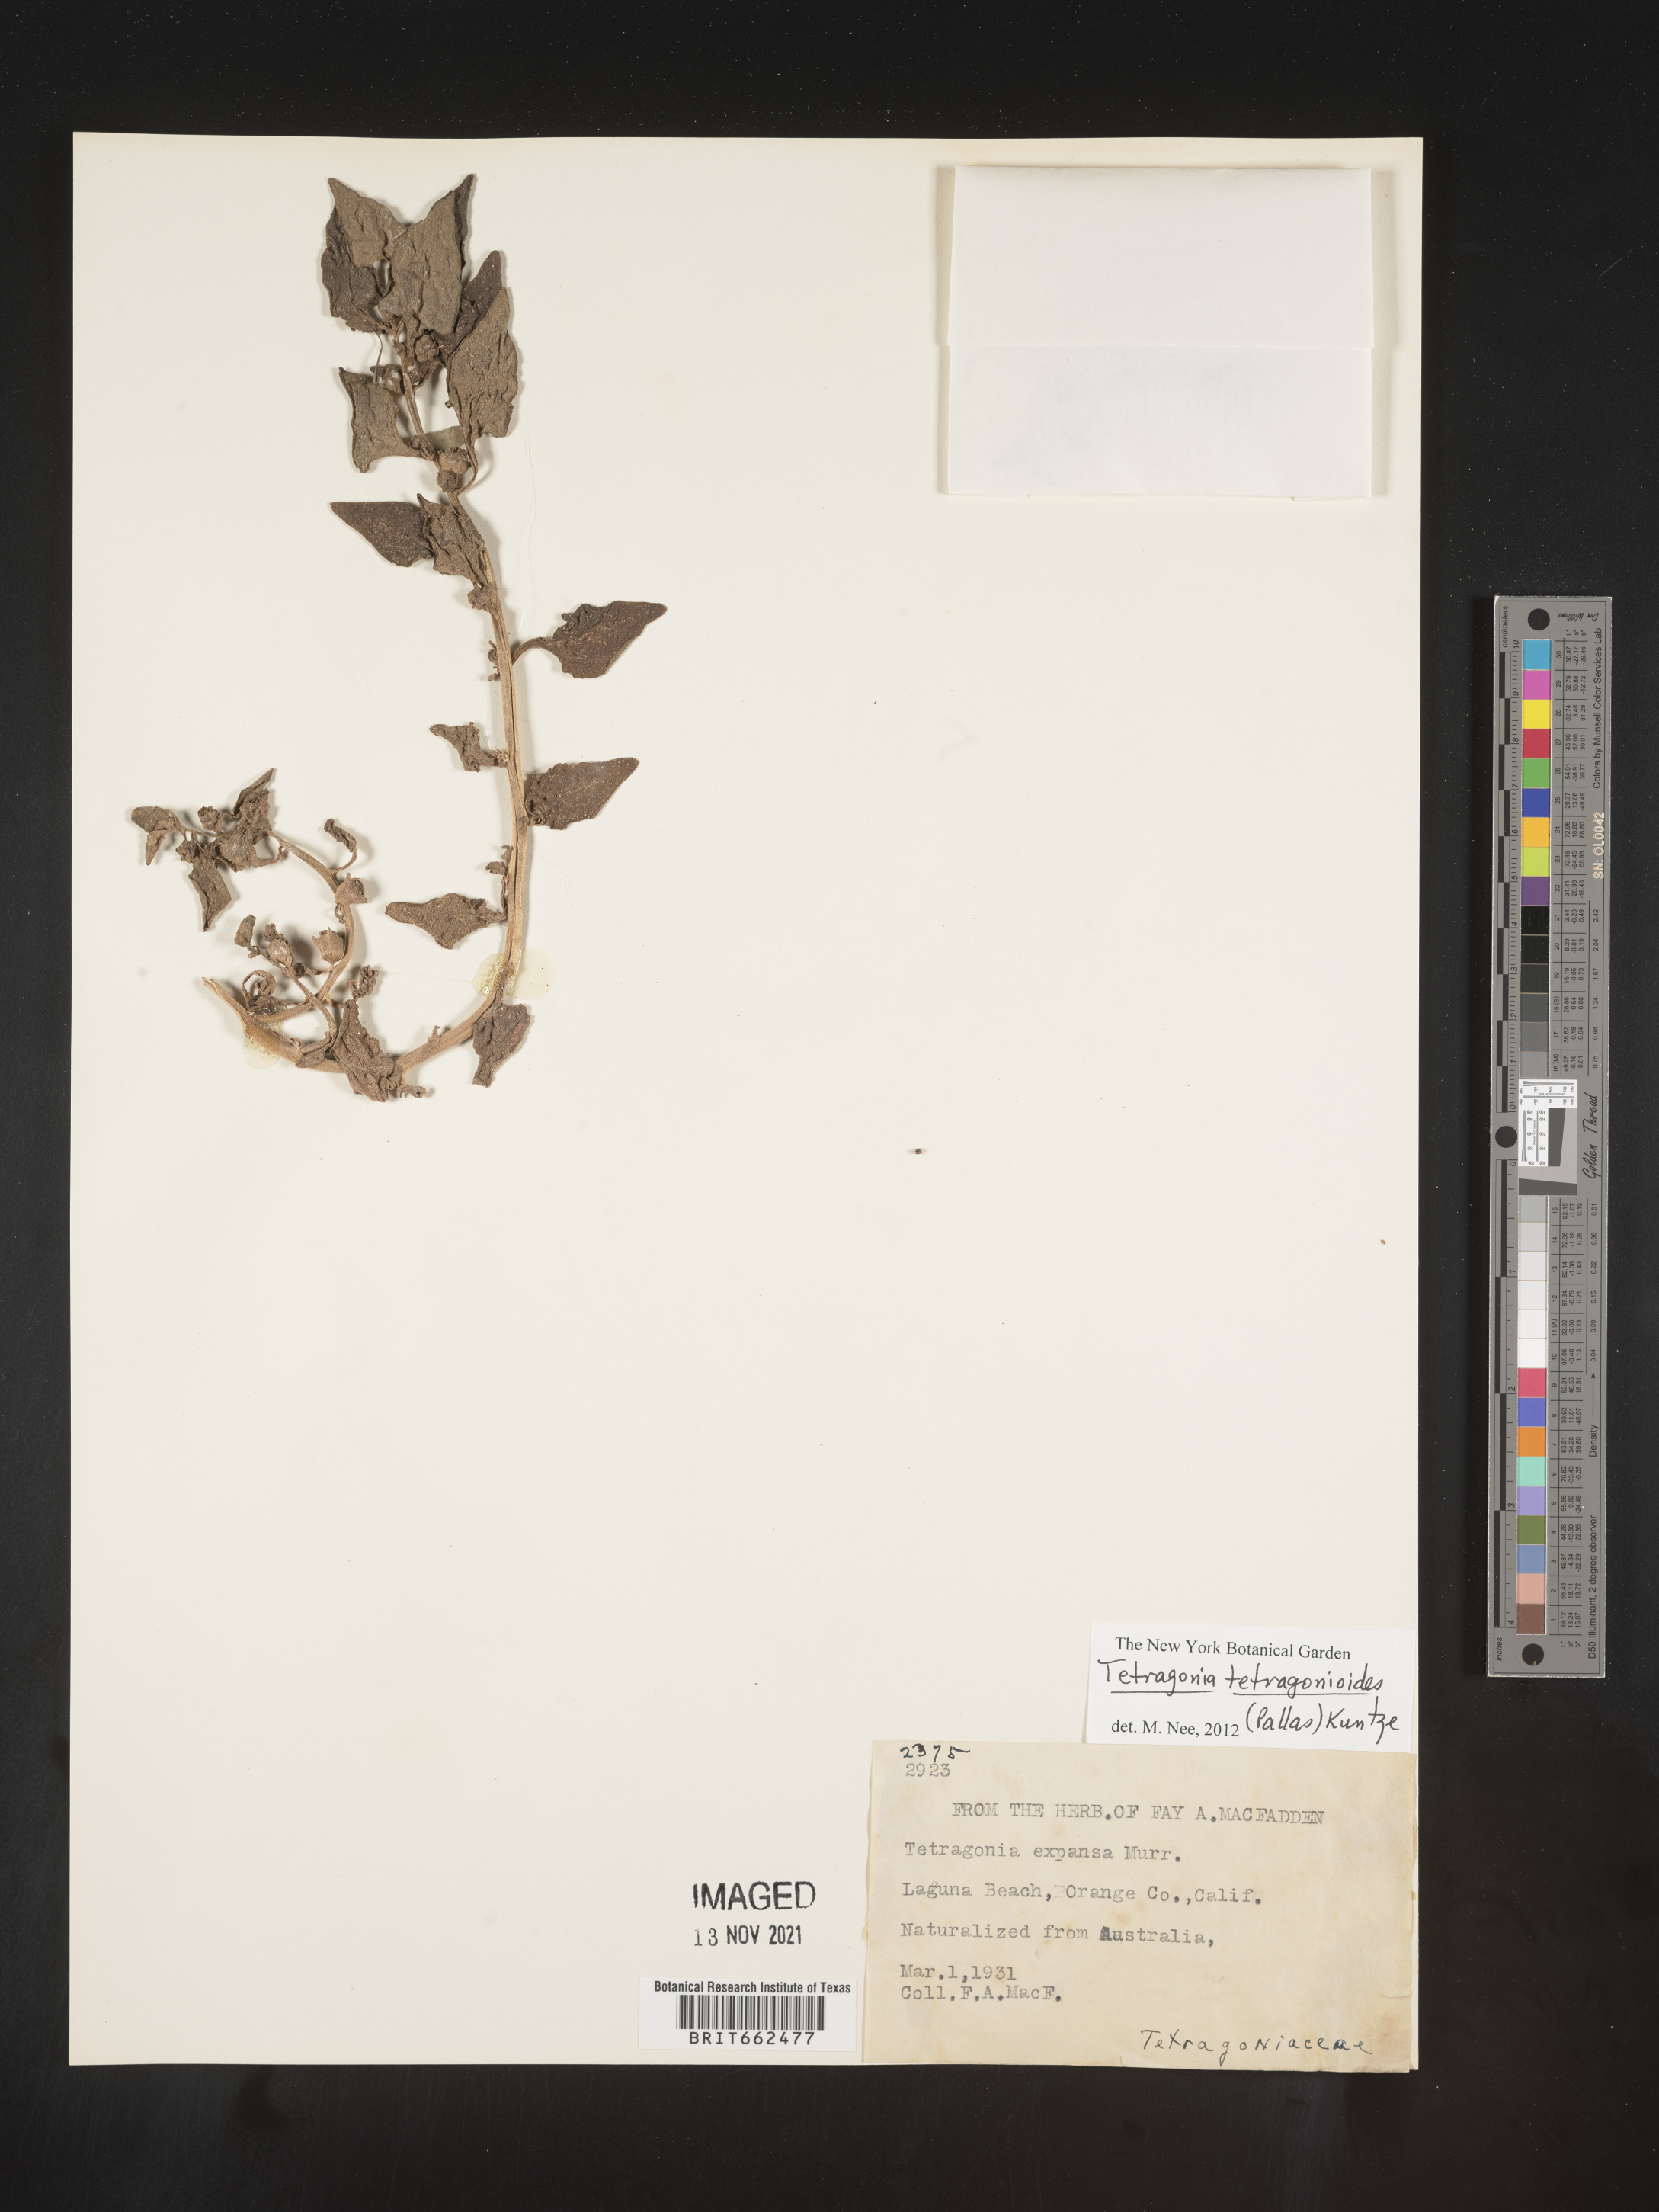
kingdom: Plantae
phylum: Tracheophyta
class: Magnoliopsida
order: Caryophyllales
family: Aizoaceae
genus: Tetragonia
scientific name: Tetragonia
